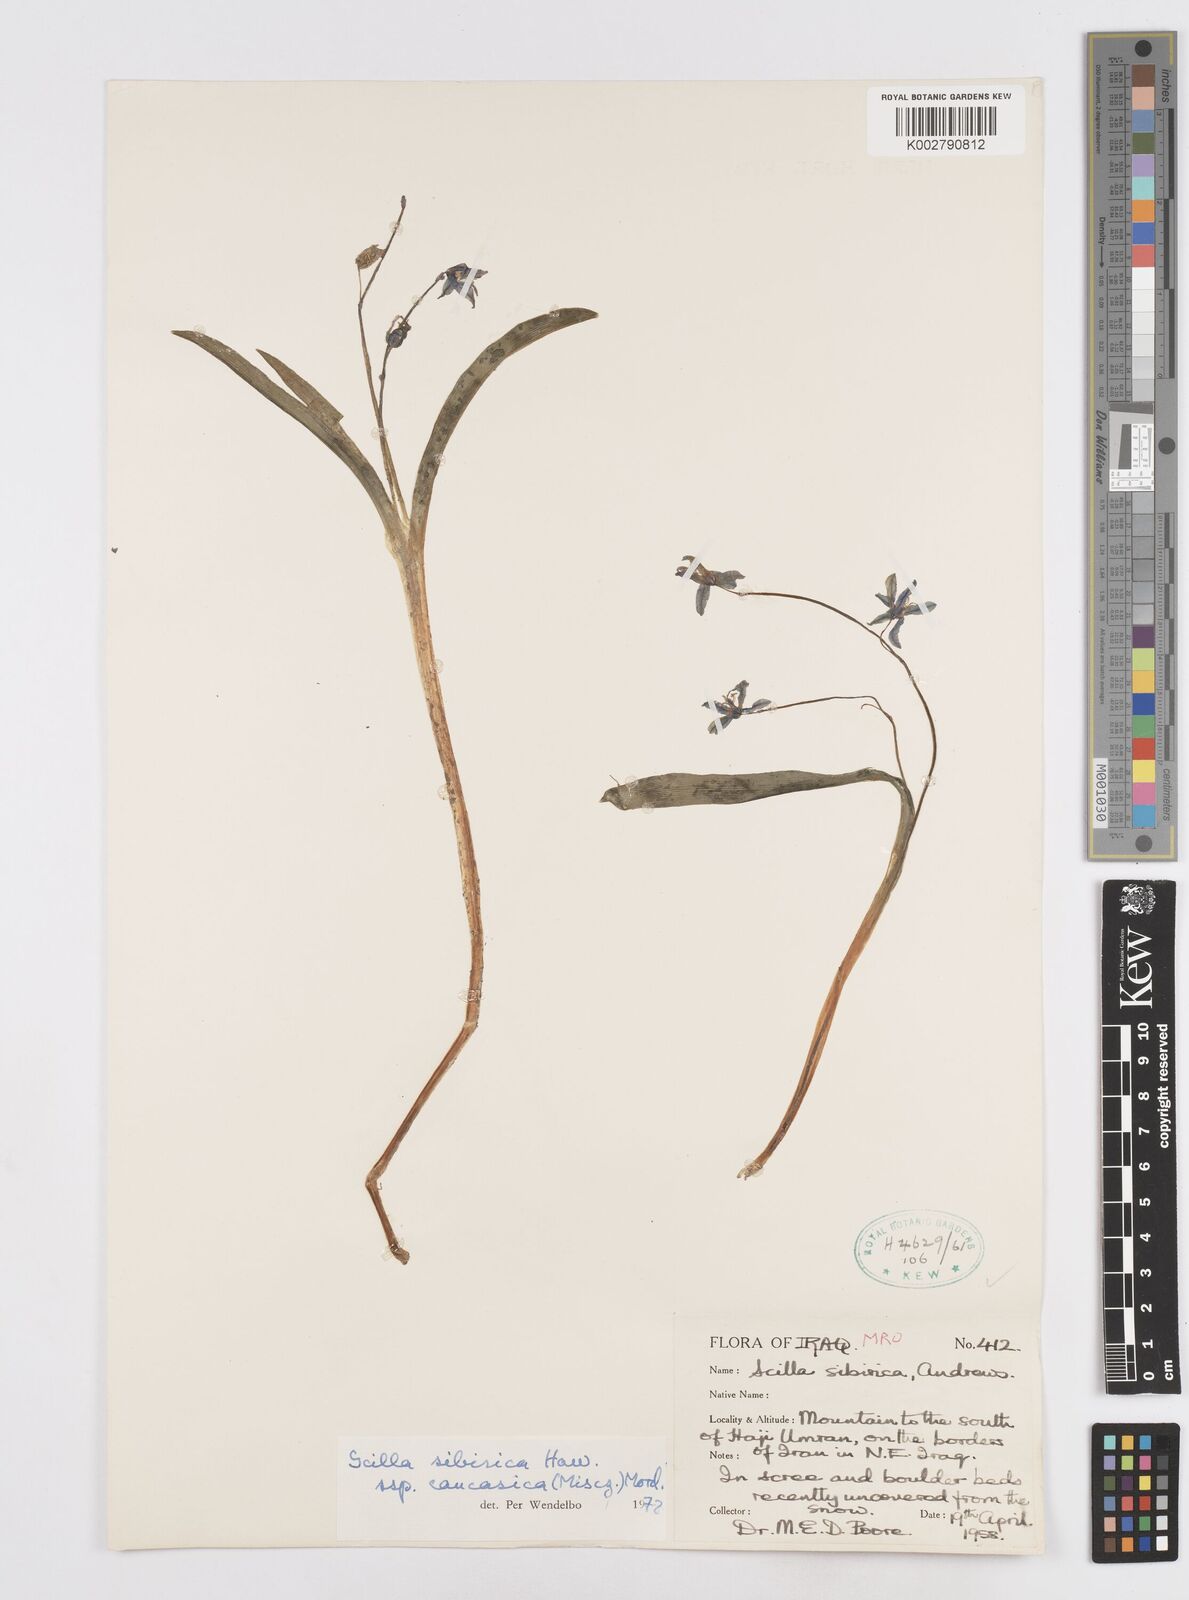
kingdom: Plantae
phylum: Tracheophyta
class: Liliopsida
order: Asparagales
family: Asparagaceae
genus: Scilla
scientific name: Scilla siberica
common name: Siberian squill
